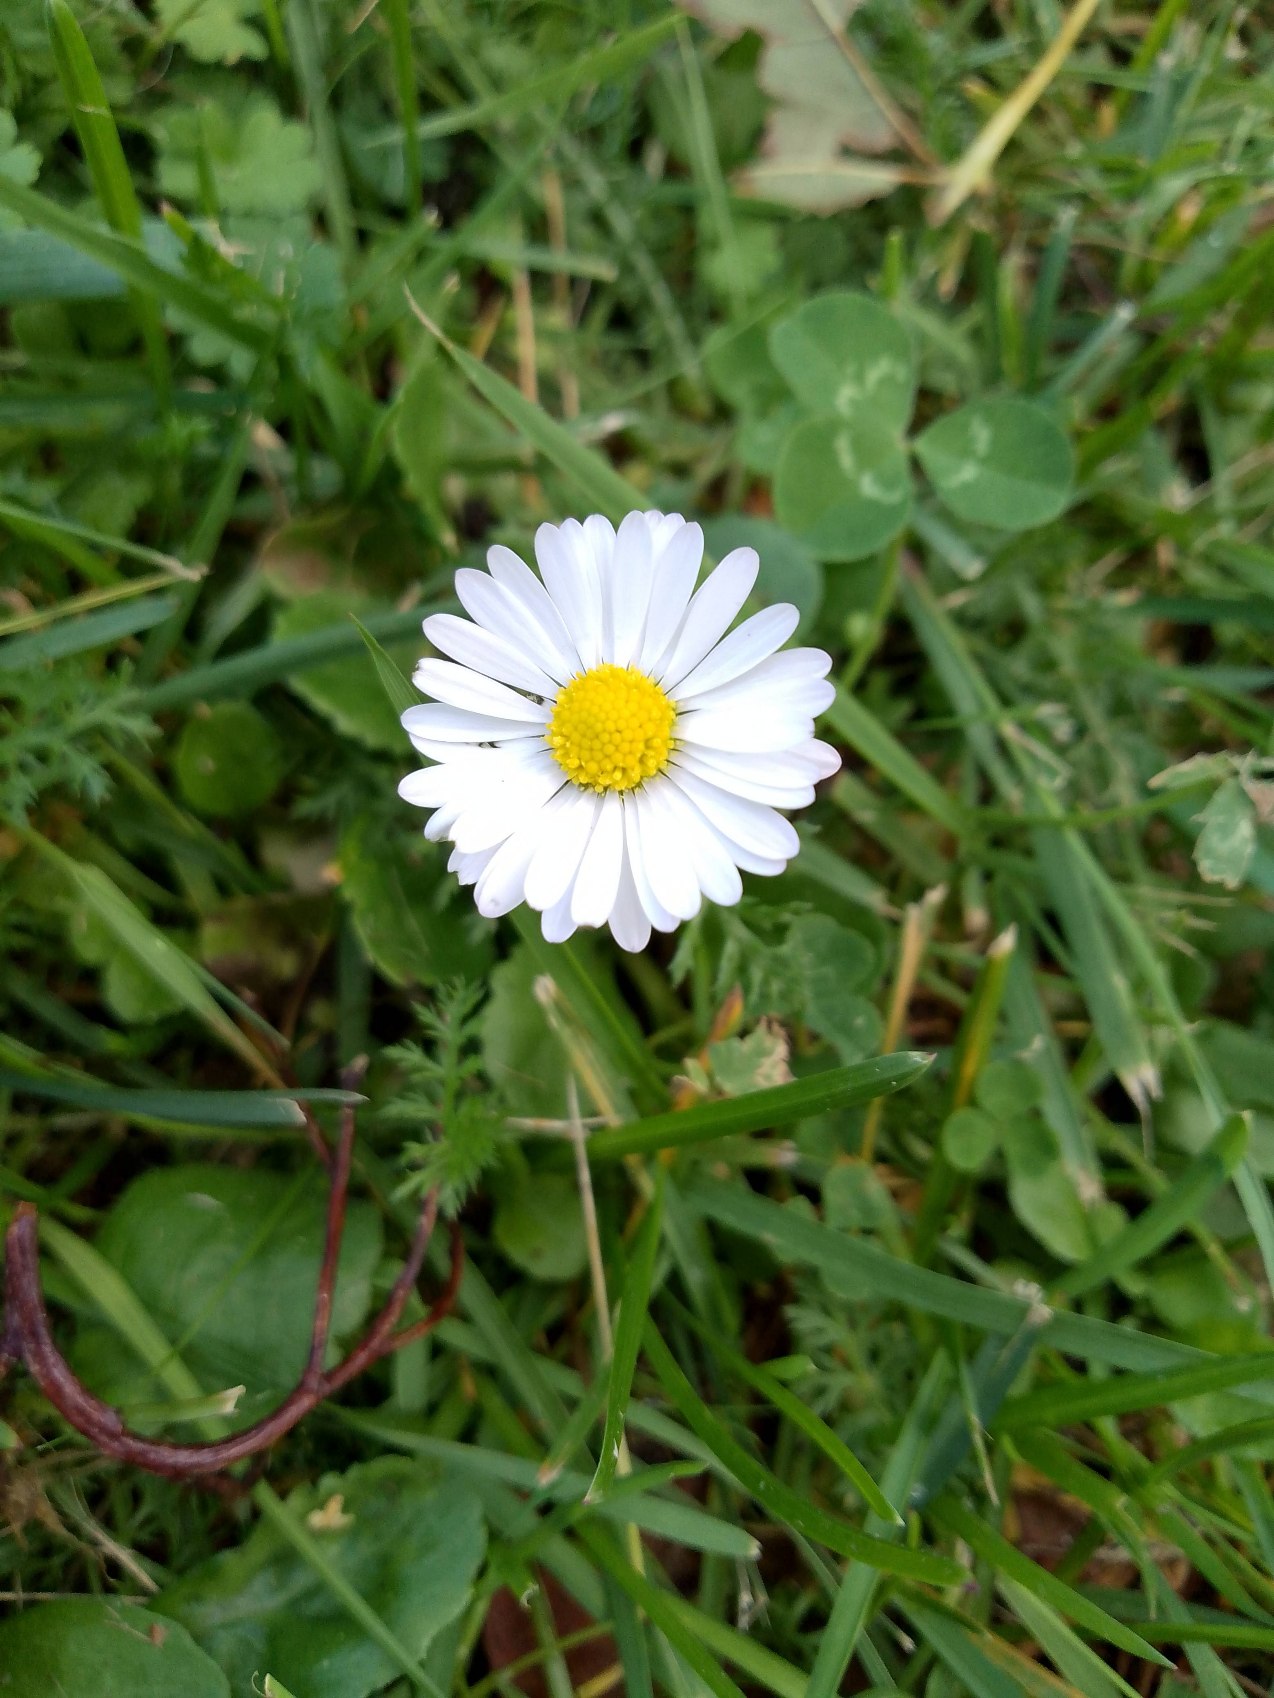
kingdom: Plantae
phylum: Tracheophyta
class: Magnoliopsida
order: Asterales
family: Asteraceae
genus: Bellis
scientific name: Bellis perennis
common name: Tusindfryd
